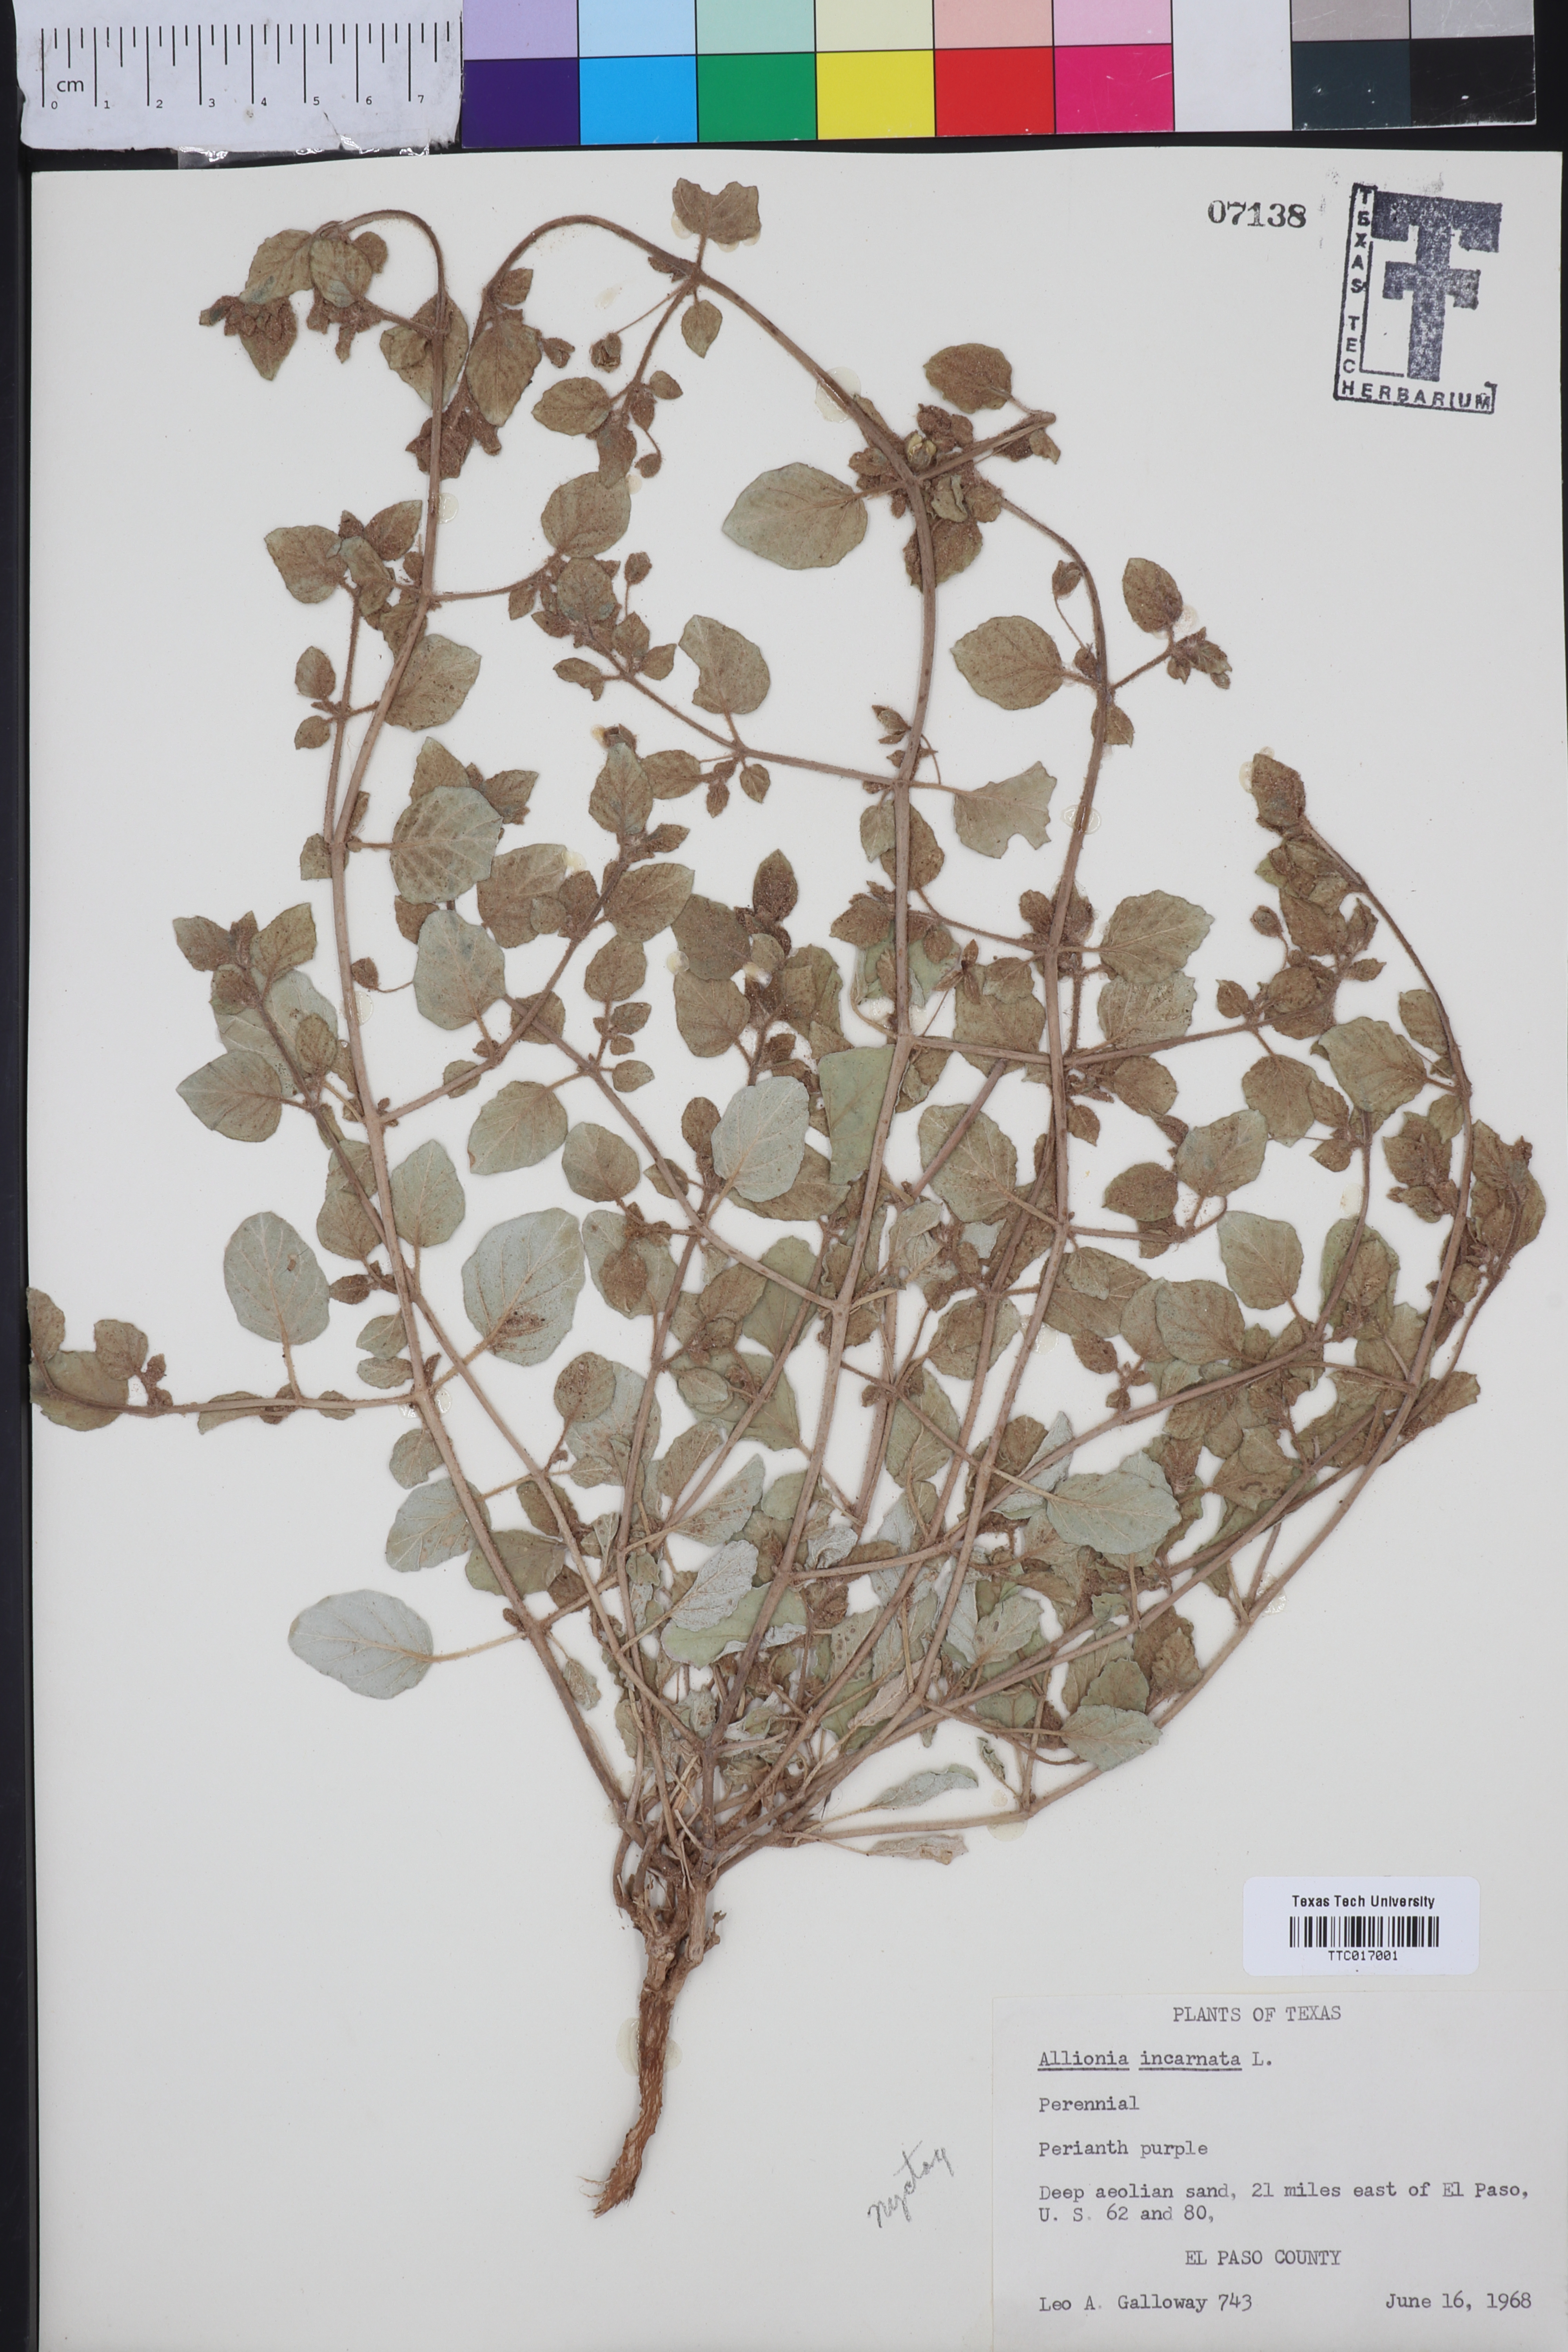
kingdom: Plantae
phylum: Tracheophyta
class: Magnoliopsida
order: Caryophyllales
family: Nyctaginaceae
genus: Allionia
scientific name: Allionia incarnata
